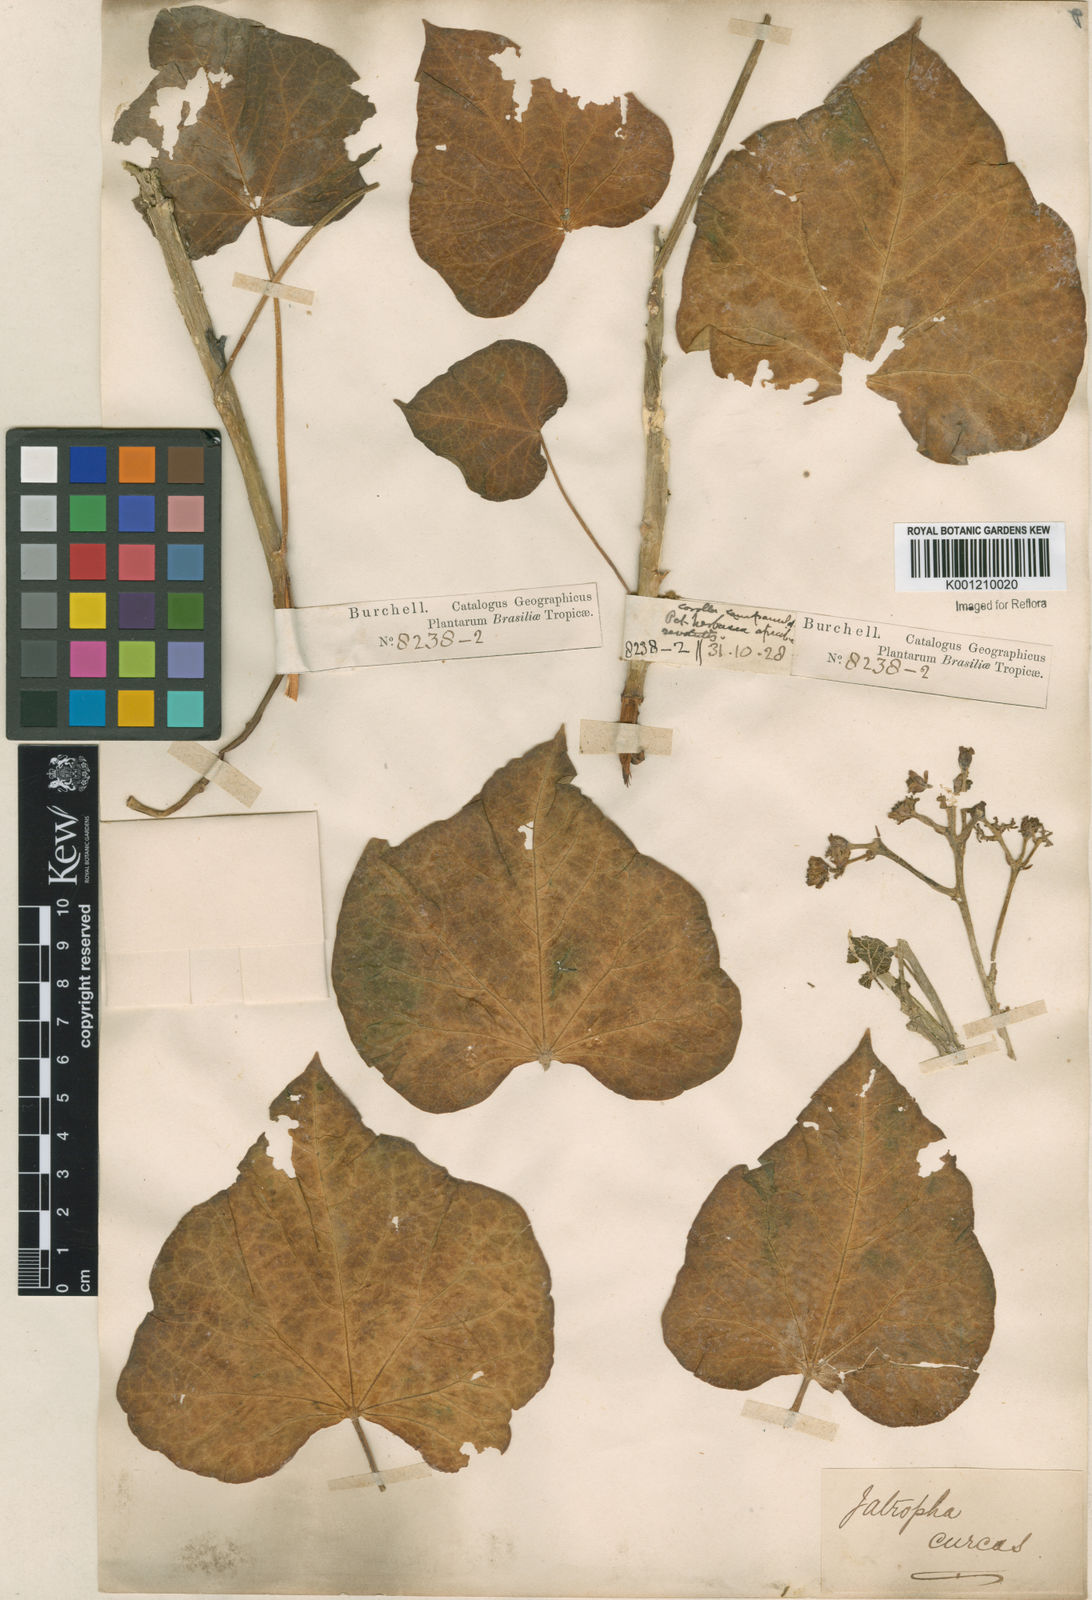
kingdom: Plantae
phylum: Tracheophyta
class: Magnoliopsida
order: Malpighiales
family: Euphorbiaceae
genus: Jatropha
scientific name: Jatropha curcas
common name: Barbados nut
